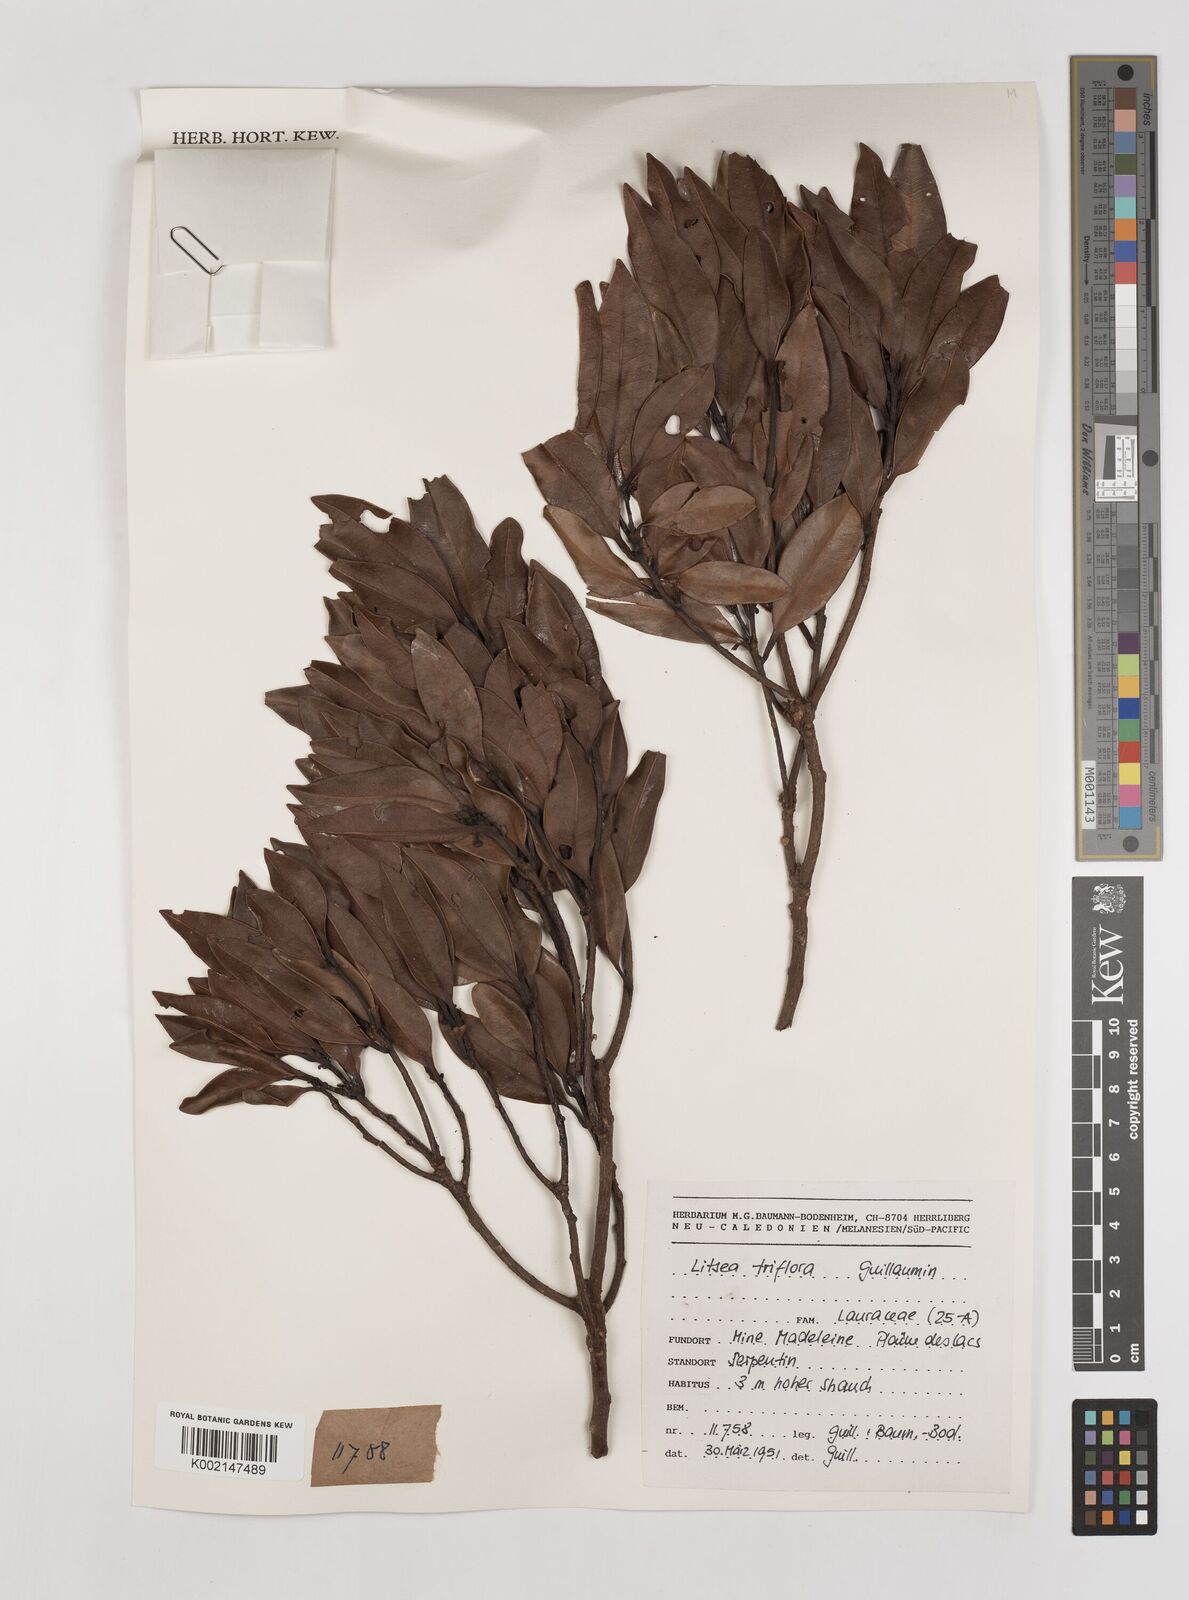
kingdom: Plantae
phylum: Tracheophyta
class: Magnoliopsida
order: Laurales
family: Lauraceae
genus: Litsea
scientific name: Litsea triflora
